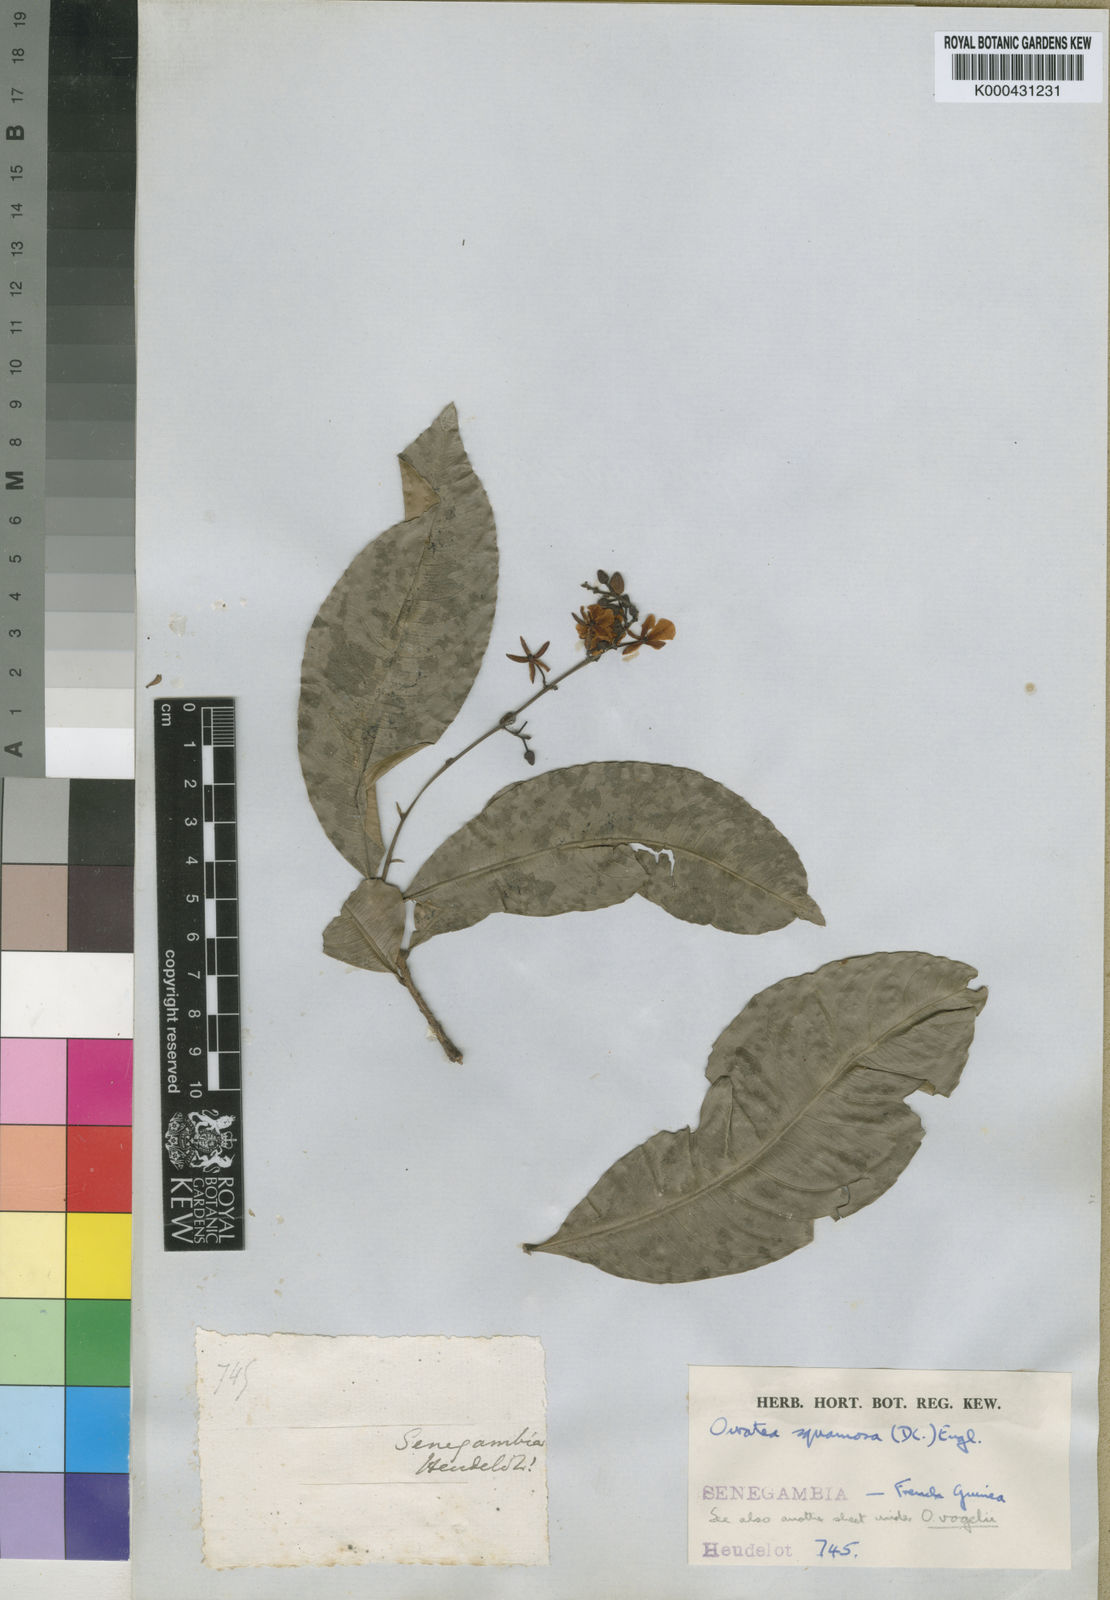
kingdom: Plantae
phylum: Tracheophyta
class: Magnoliopsida
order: Malpighiales
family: Ochnaceae
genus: Campylospermum
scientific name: Campylospermum squamosum
